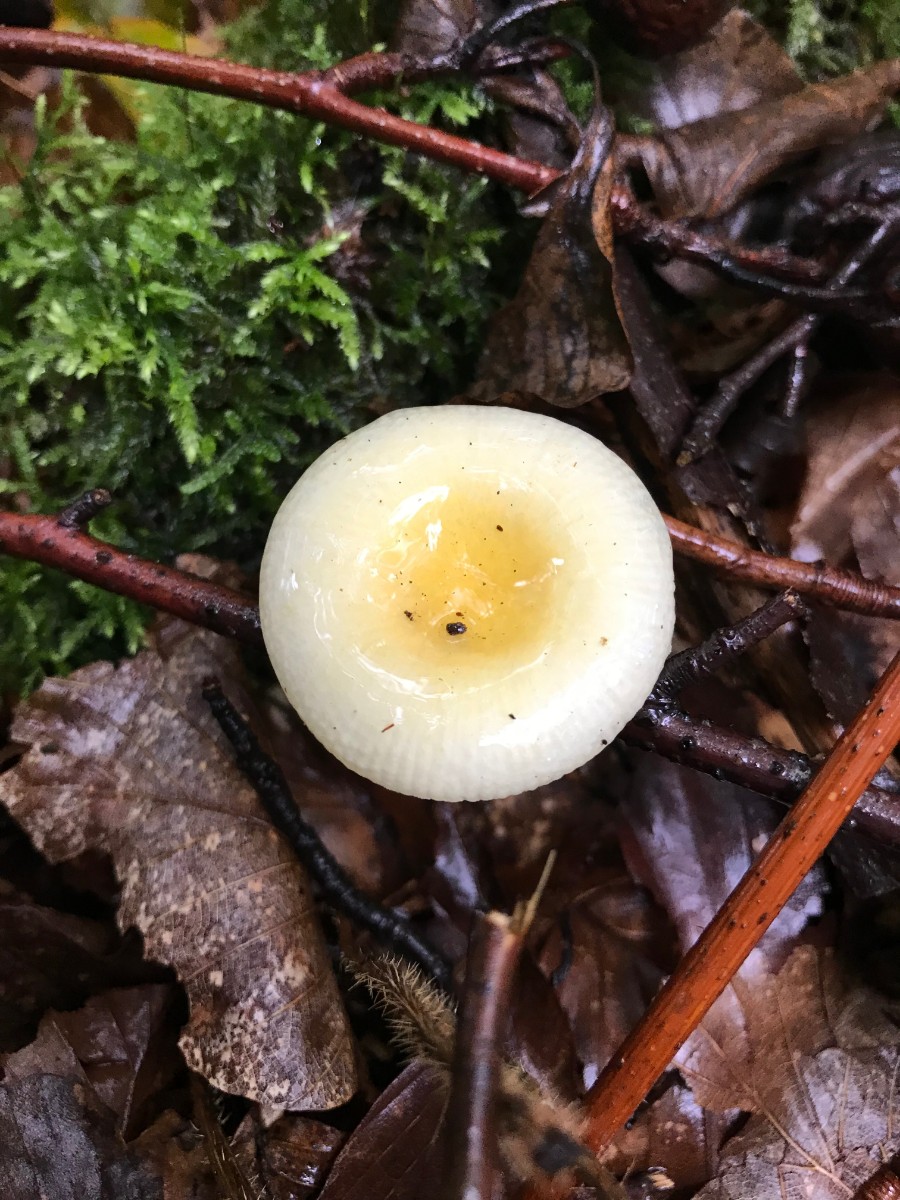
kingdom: Fungi
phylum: Basidiomycota
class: Agaricomycetes
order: Russulales
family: Russulaceae
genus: Russula
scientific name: Russula solaris
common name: sol-skørhat
